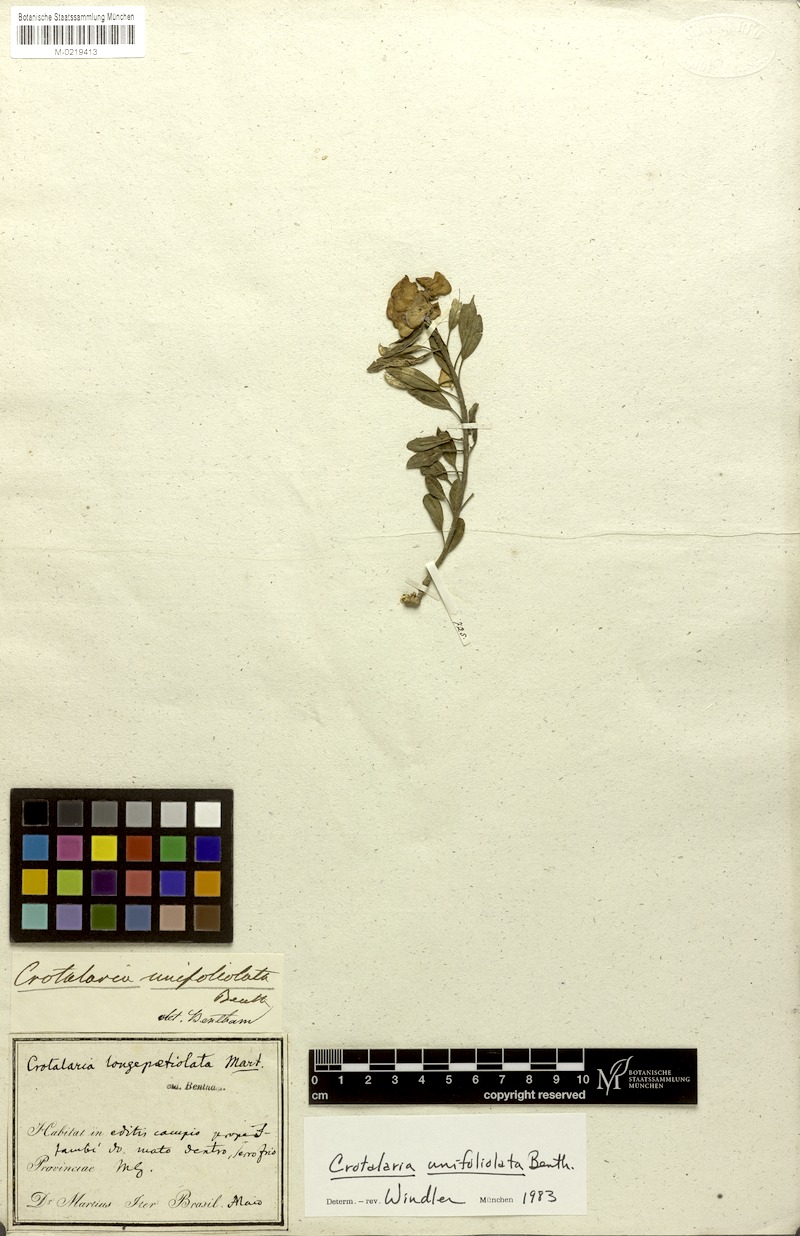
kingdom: Plantae
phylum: Tracheophyta
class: Magnoliopsida
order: Fabales
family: Fabaceae
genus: Crotalaria
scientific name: Crotalaria unifoliolata
